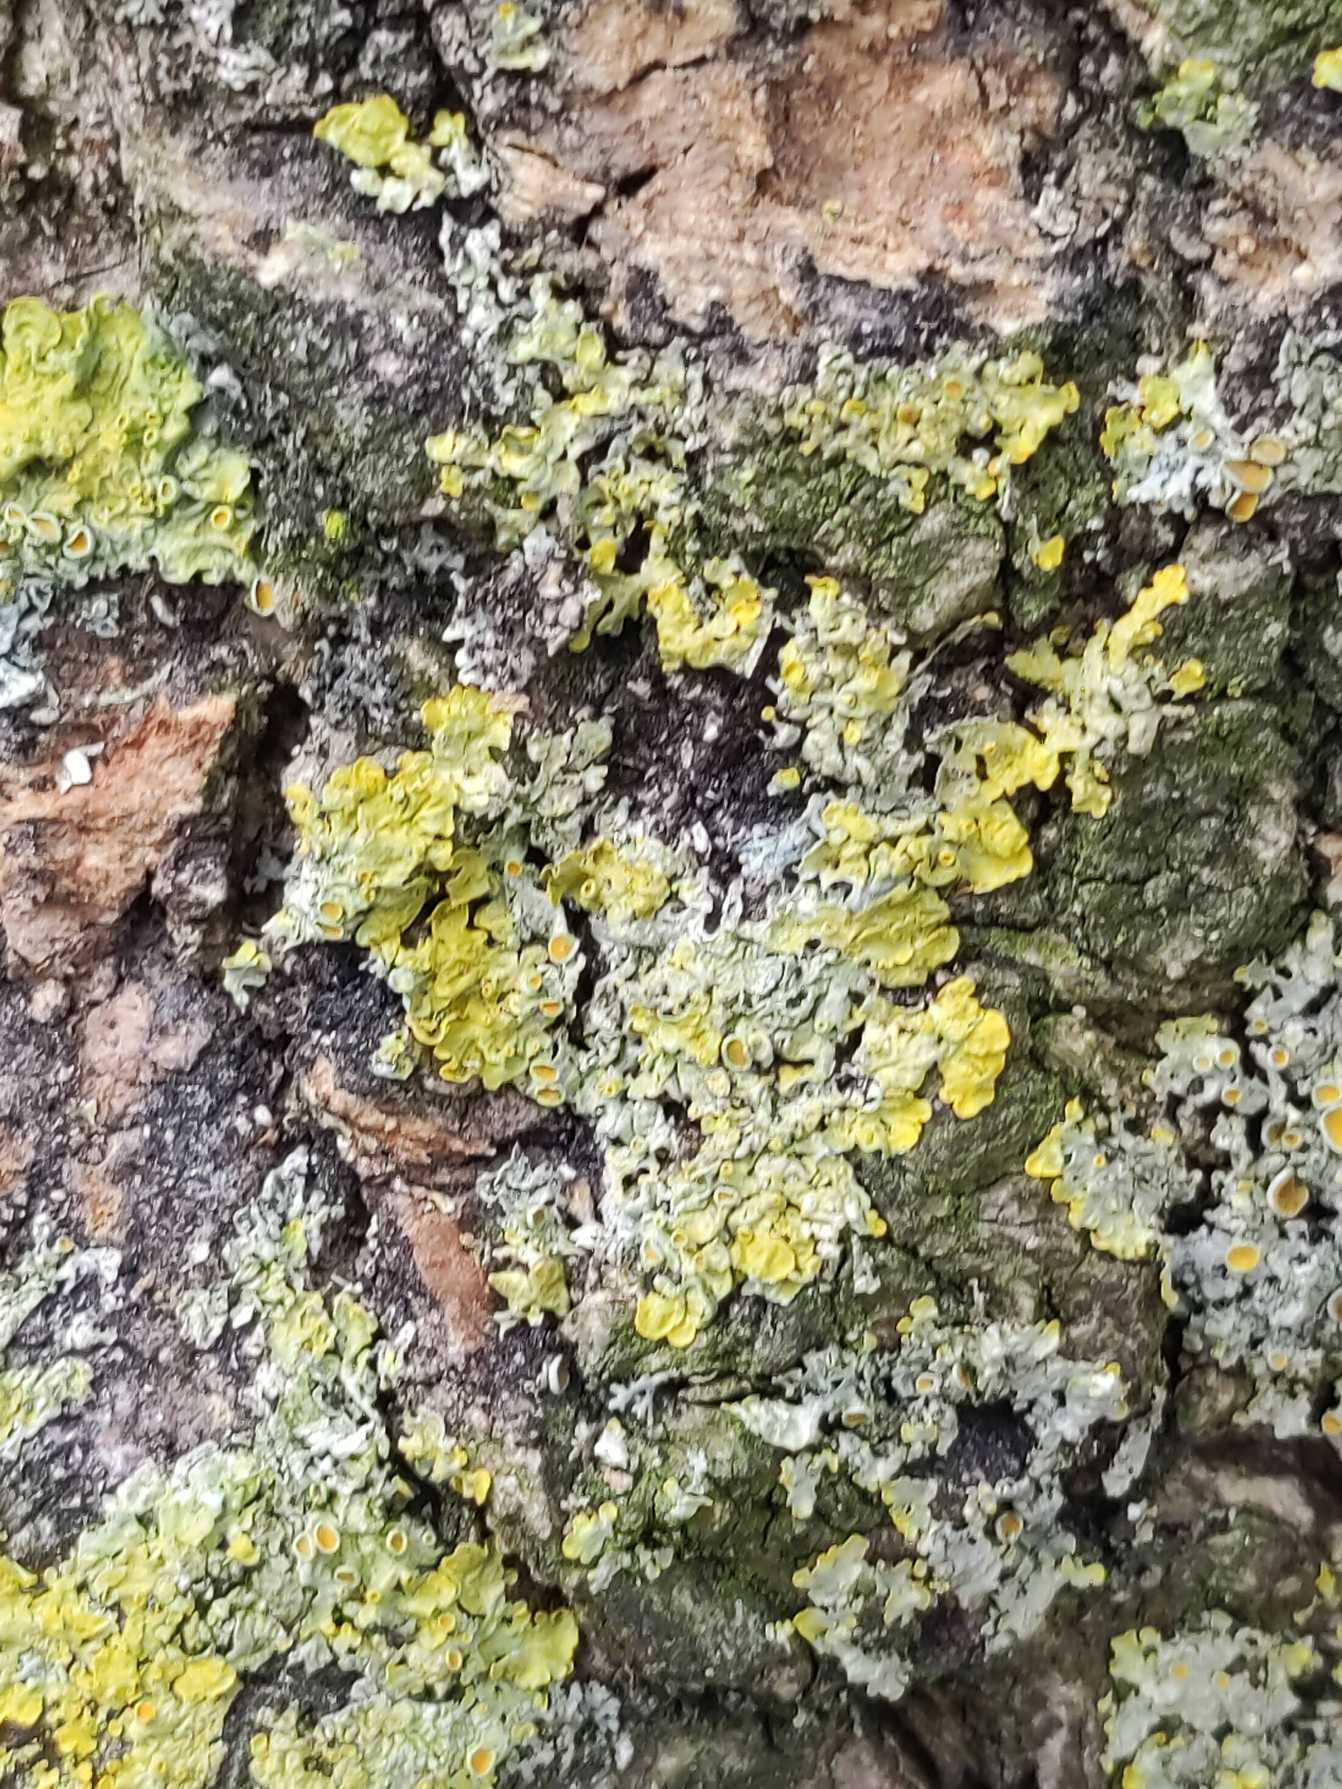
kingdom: Fungi
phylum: Ascomycota
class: Lecanoromycetes
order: Teloschistales
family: Teloschistaceae
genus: Xanthoria
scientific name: Xanthoria parietina
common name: Almindelig væggelav
